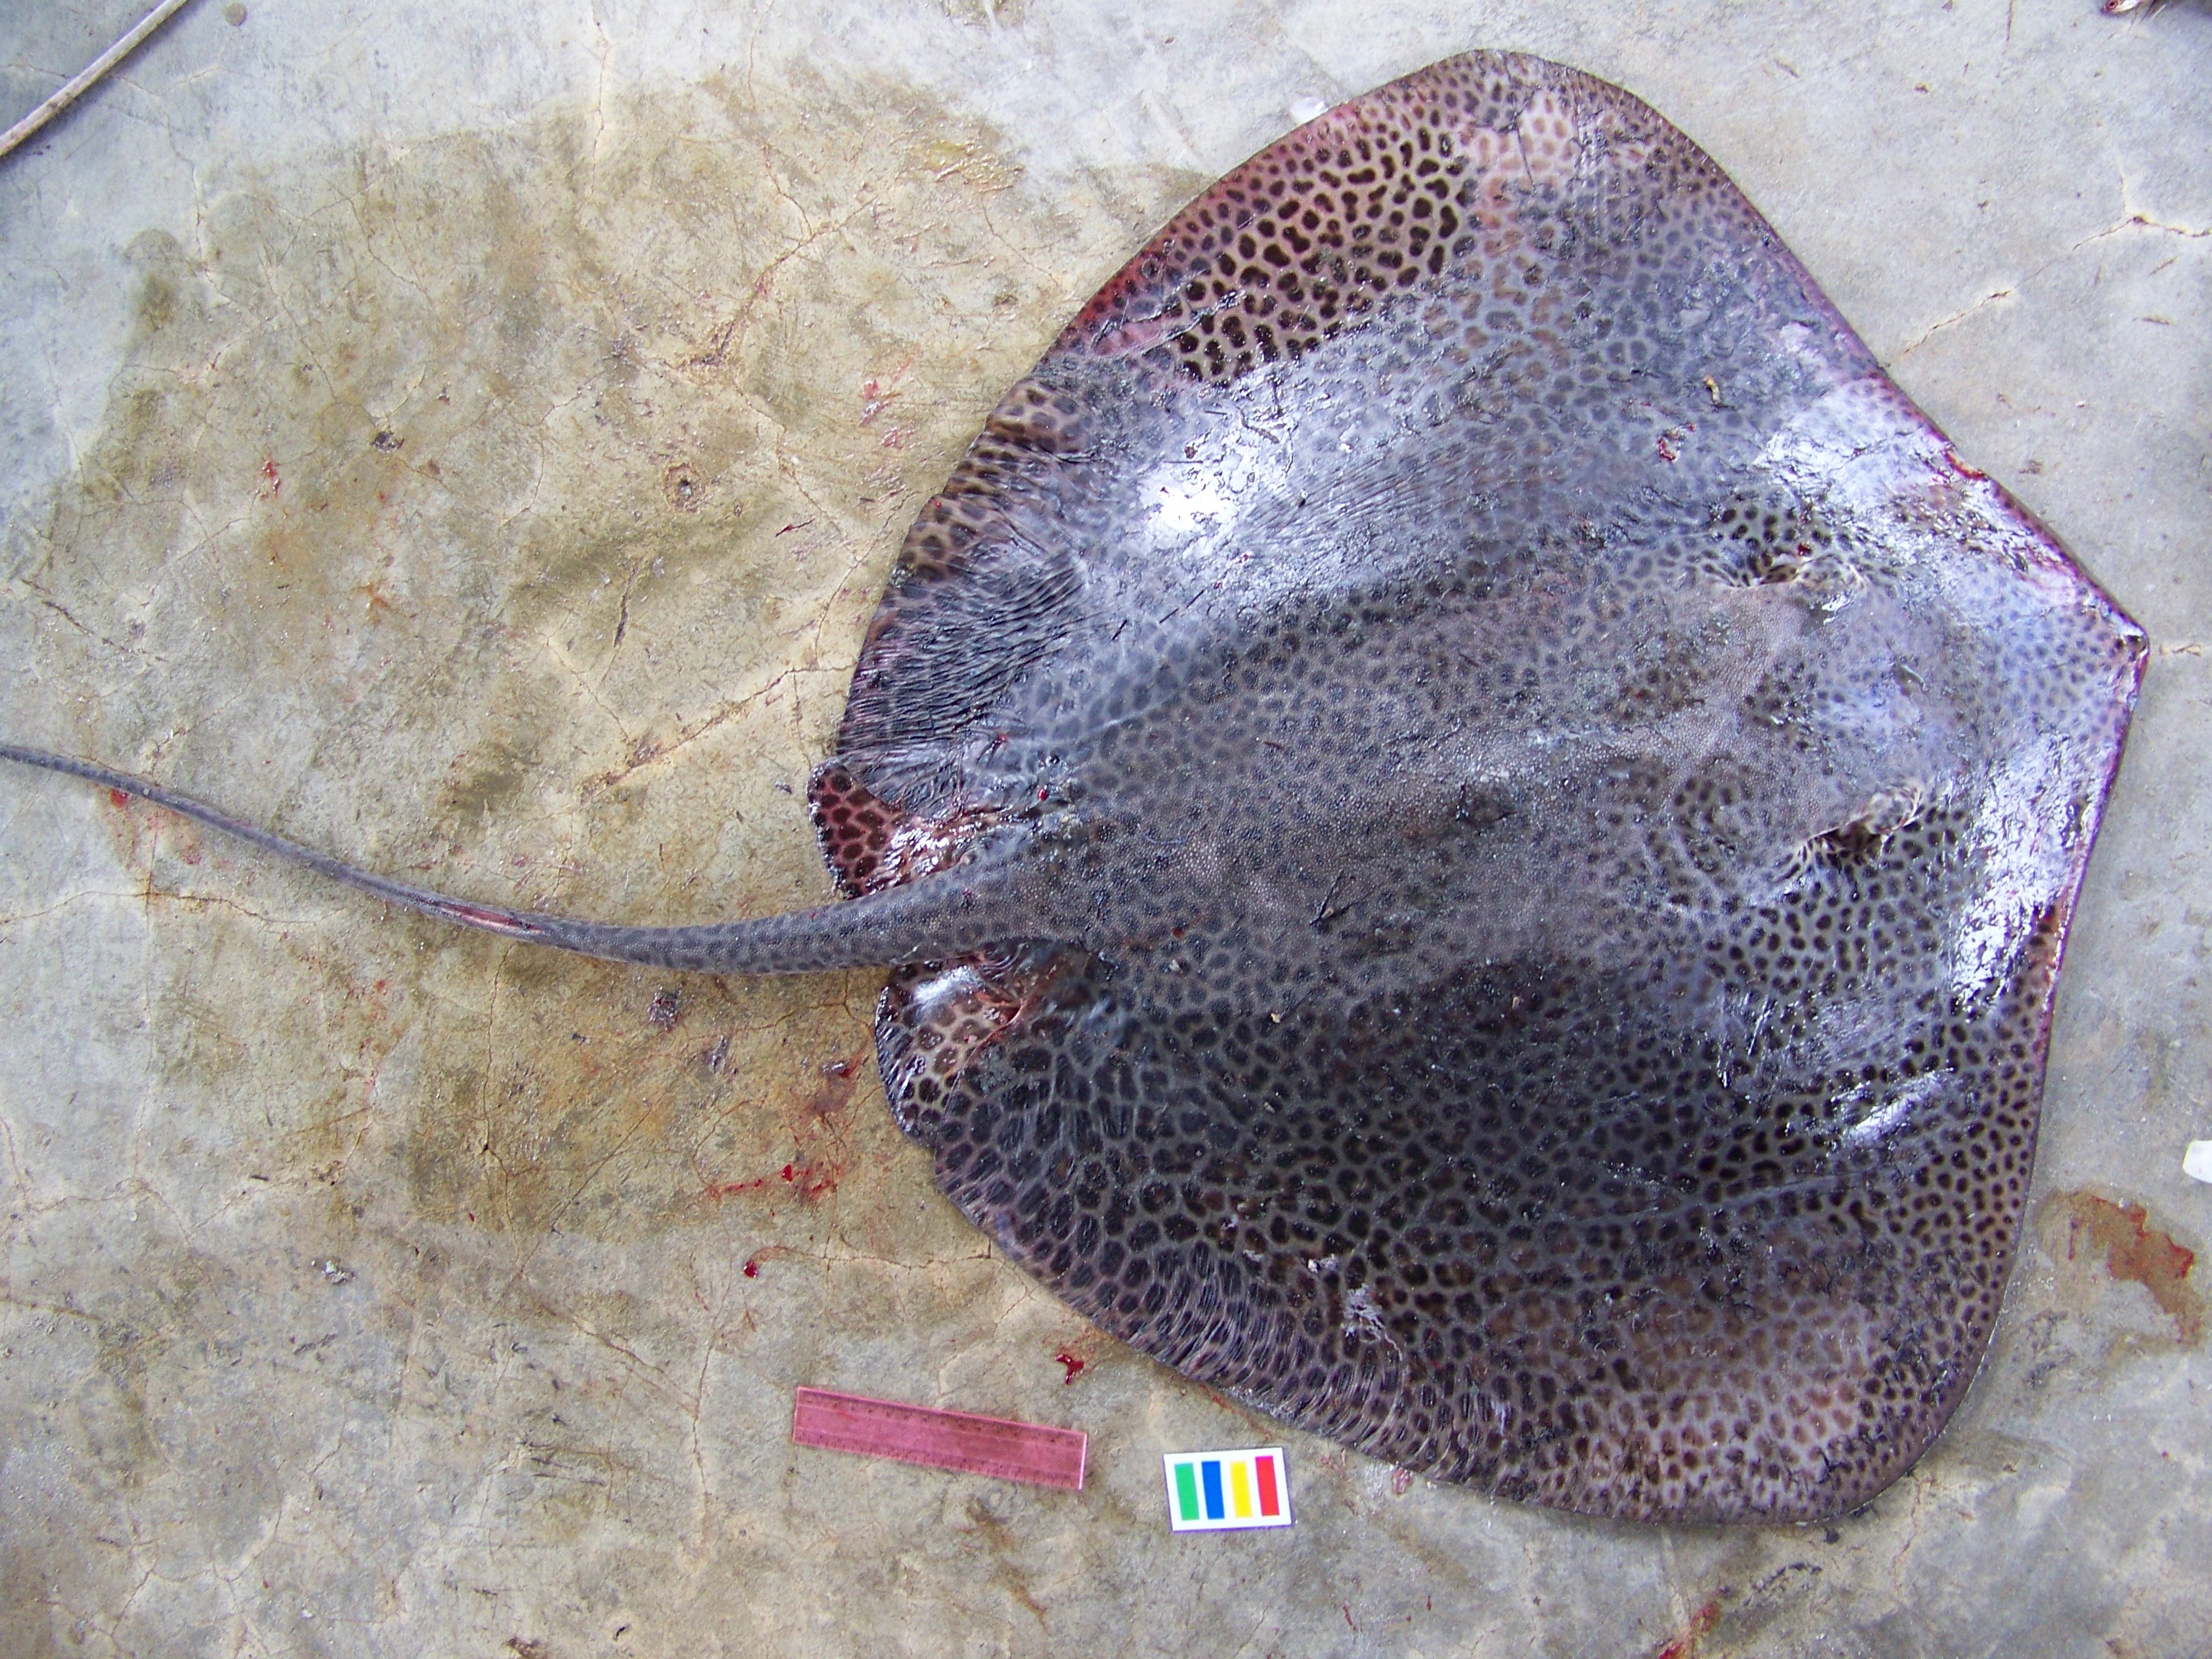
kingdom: Animalia
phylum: Chordata
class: Elasmobranchii
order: Myliobatiformes
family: Dasyatidae
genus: Himantura
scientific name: Himantura uarnak
